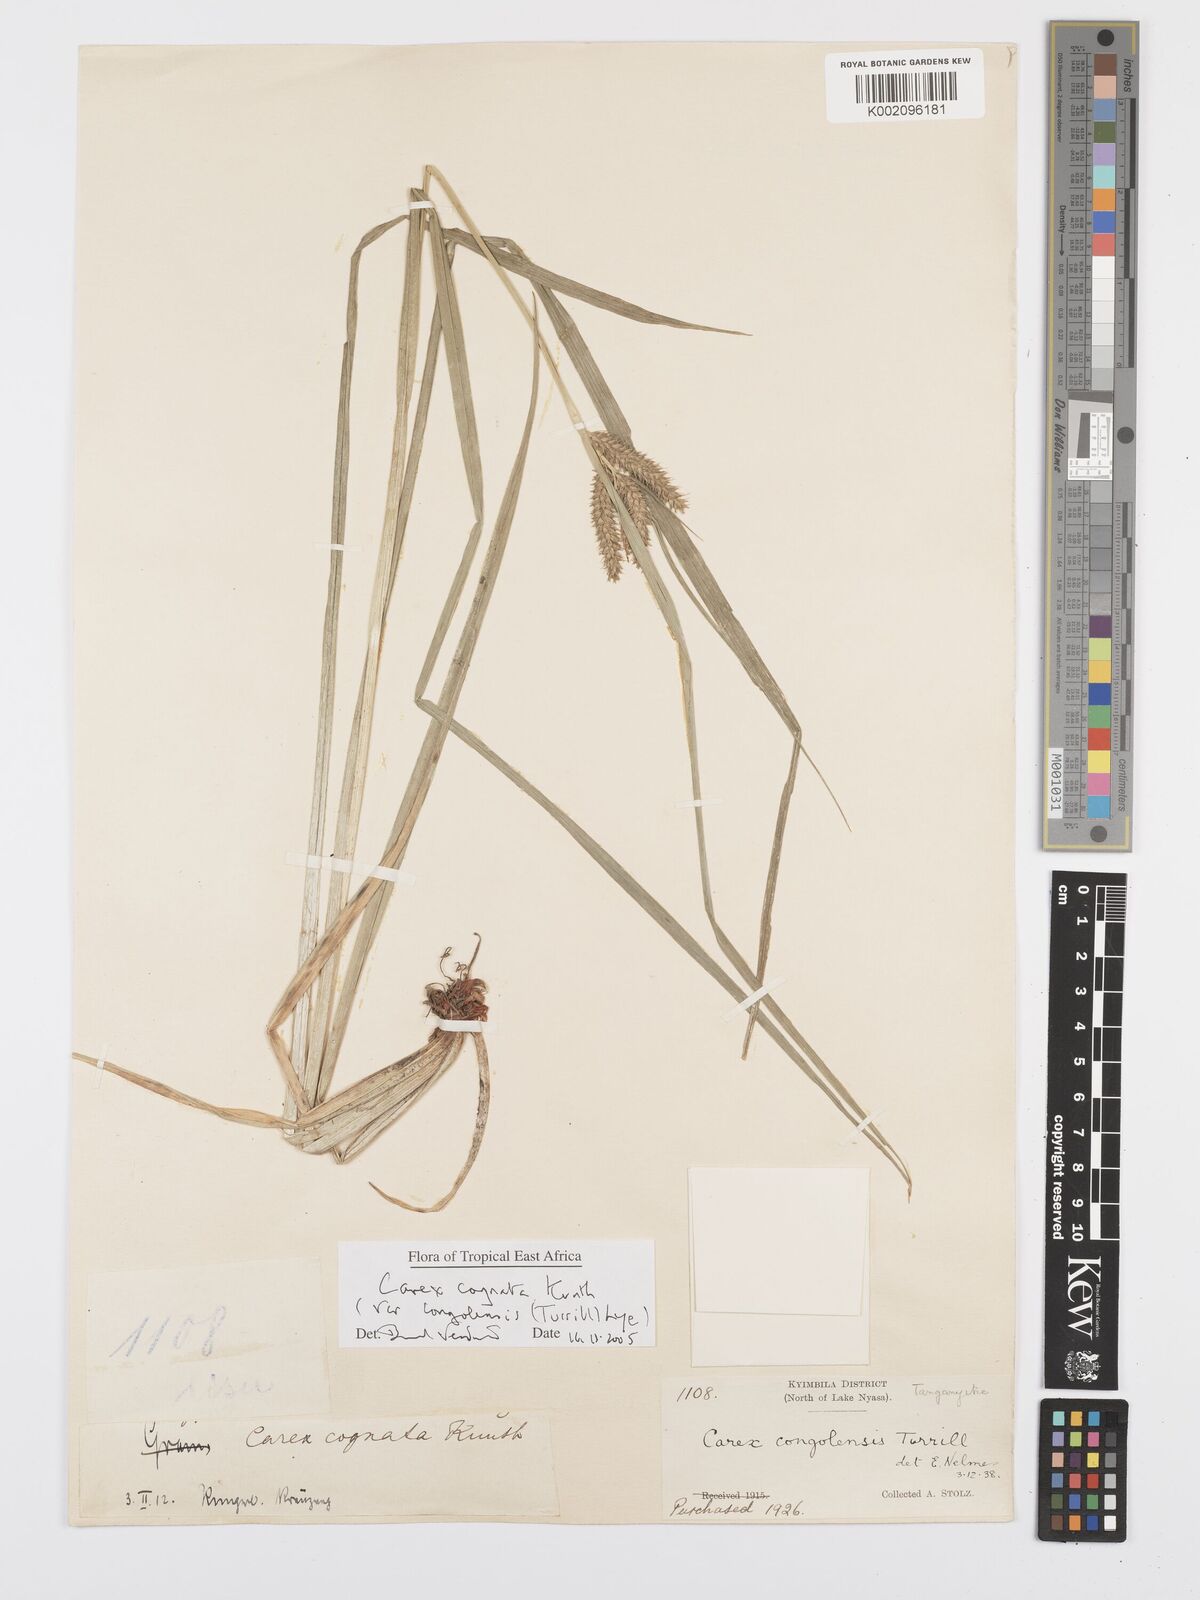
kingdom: Plantae
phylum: Tracheophyta
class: Liliopsida
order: Poales
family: Cyperaceae
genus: Carex
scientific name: Carex congolensis
